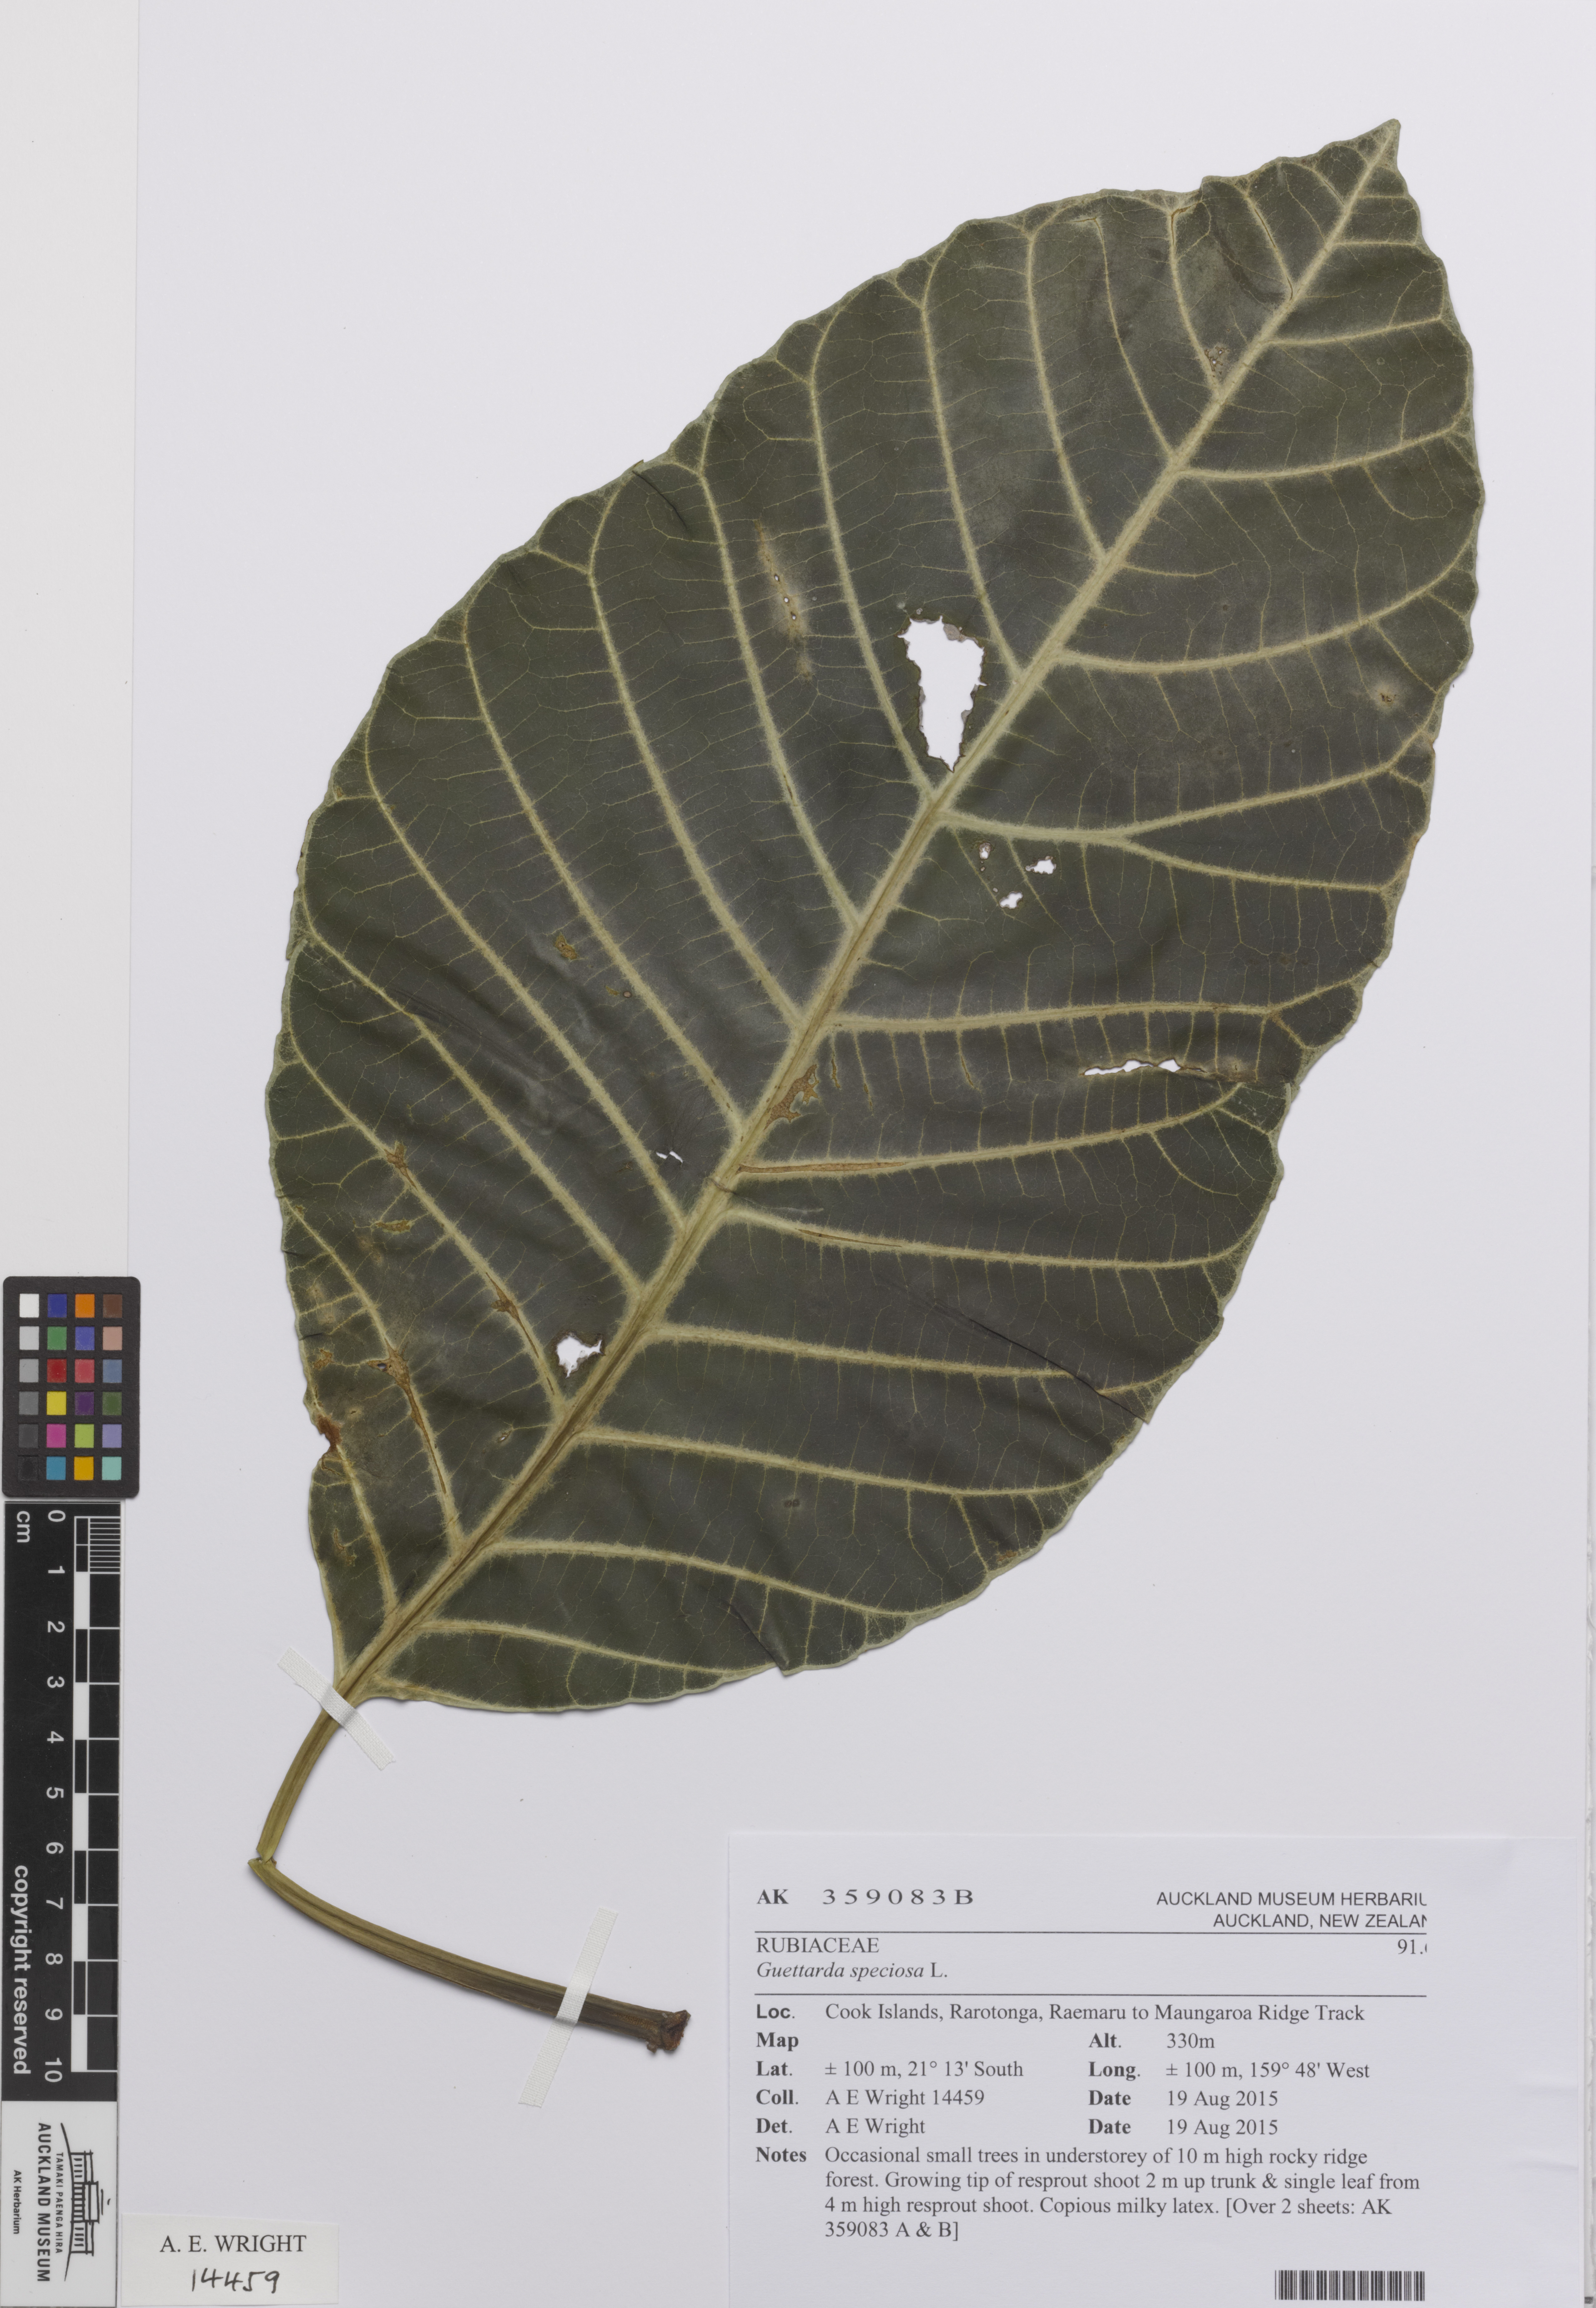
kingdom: Plantae
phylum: Tracheophyta
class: Magnoliopsida
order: Gentianales
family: Rubiaceae
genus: Guettarda
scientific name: Guettarda speciosa
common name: Sea randa
